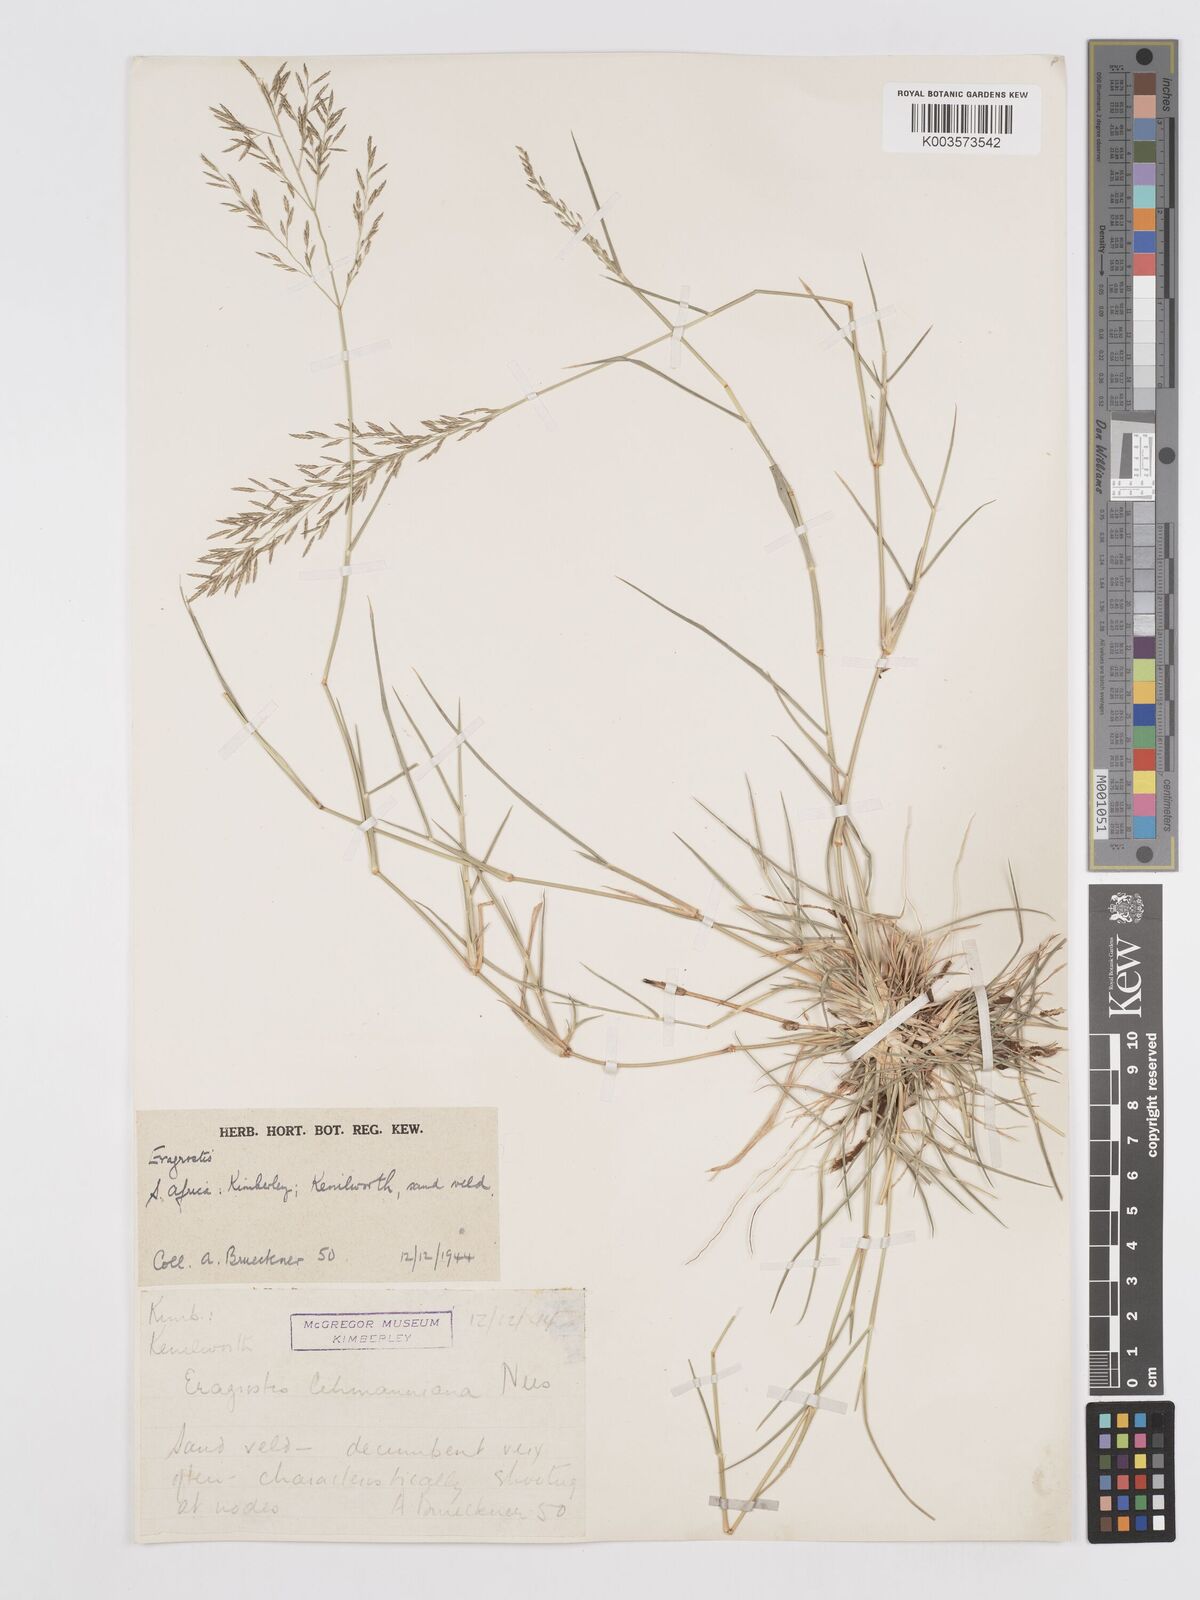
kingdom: Plantae
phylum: Tracheophyta
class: Liliopsida
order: Poales
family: Poaceae
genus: Eragrostis
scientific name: Eragrostis lehmanniana
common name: Lehmann lovegrass
